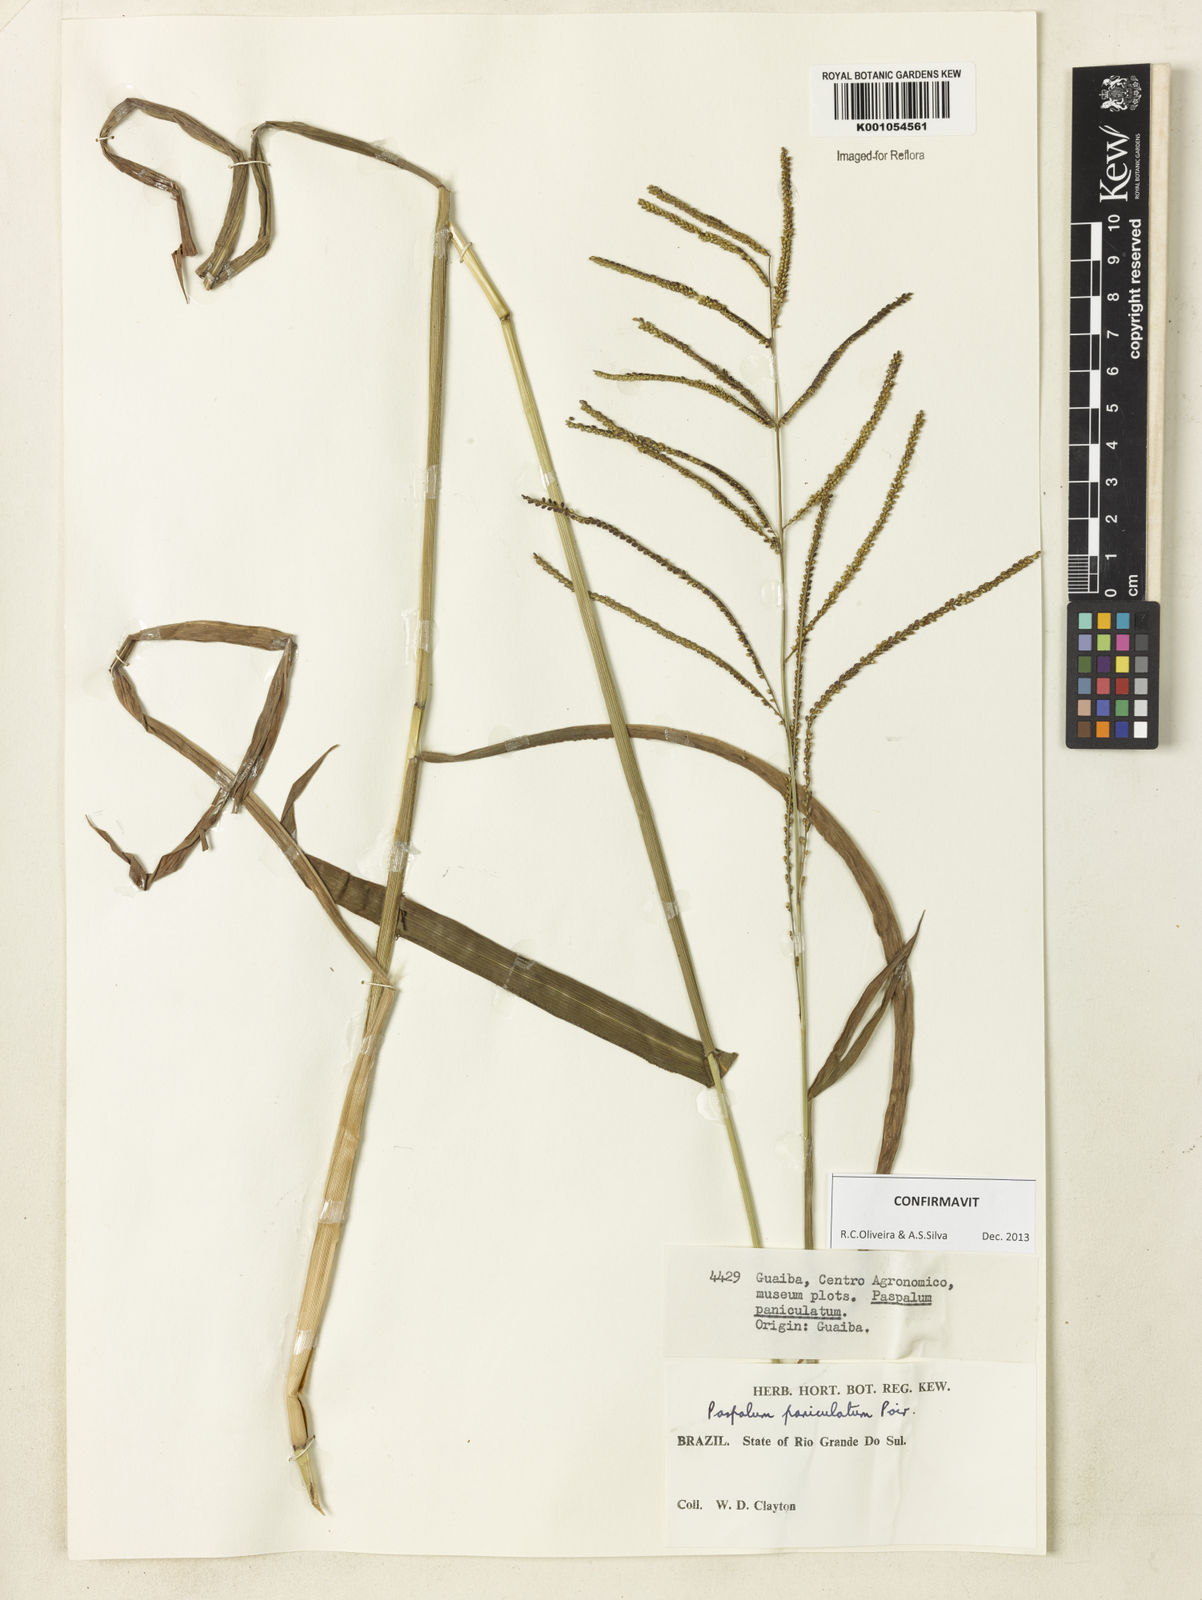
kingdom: Plantae
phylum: Tracheophyta
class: Liliopsida
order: Poales
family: Poaceae
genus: Paspalum
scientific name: Paspalum paniculatum
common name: Arrocillo
